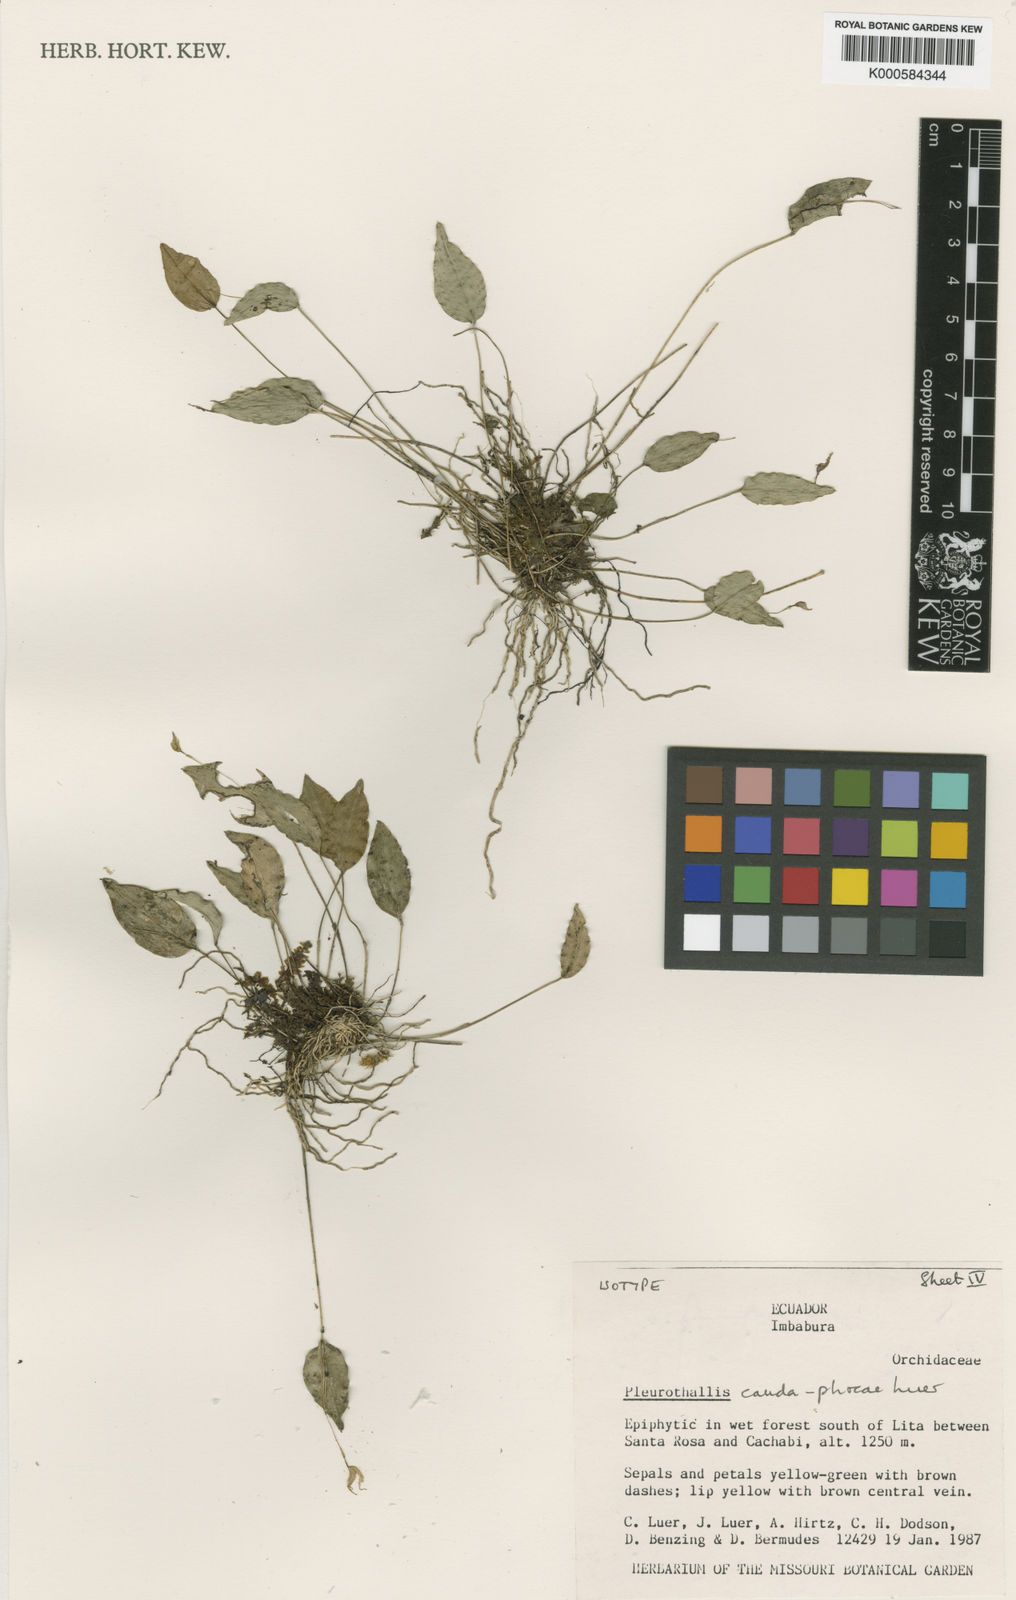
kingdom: Plantae
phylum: Tracheophyta
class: Liliopsida
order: Asparagales
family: Orchidaceae
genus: Lepanthes
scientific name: Lepanthes
